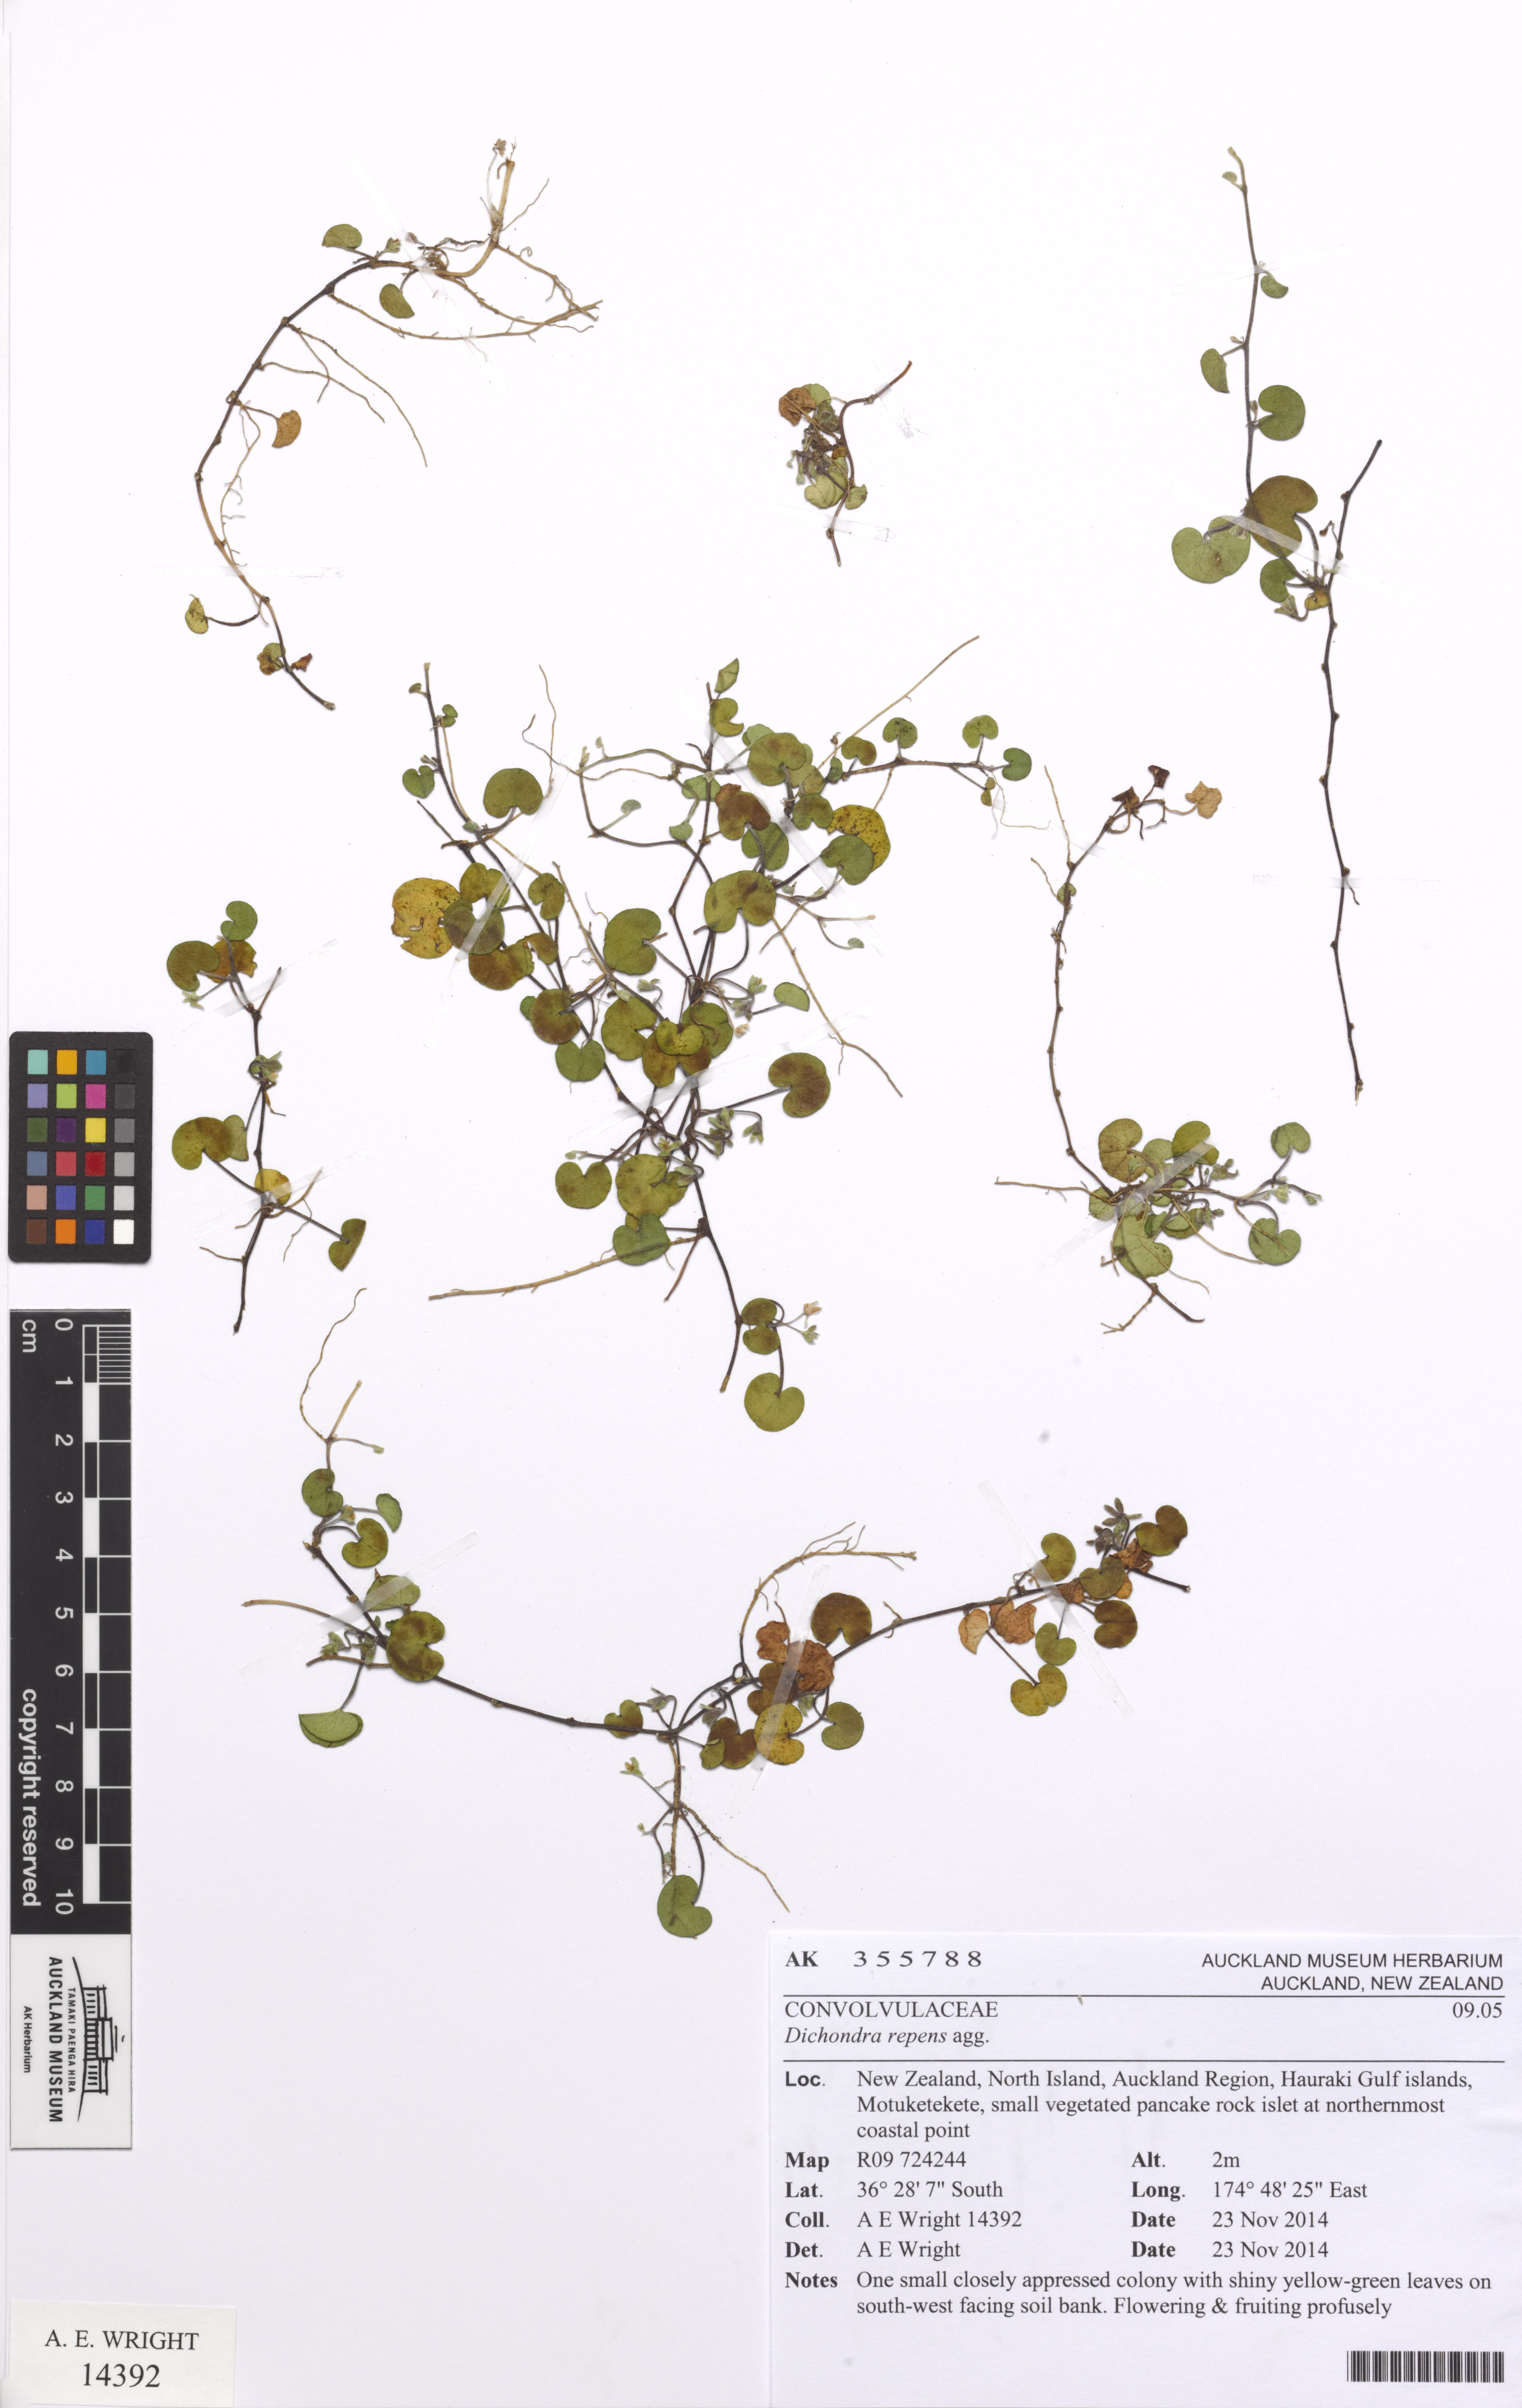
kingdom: Plantae
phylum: Tracheophyta
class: Magnoliopsida
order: Solanales
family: Convolvulaceae
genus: Dichondra
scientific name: Dichondra brevifolia
